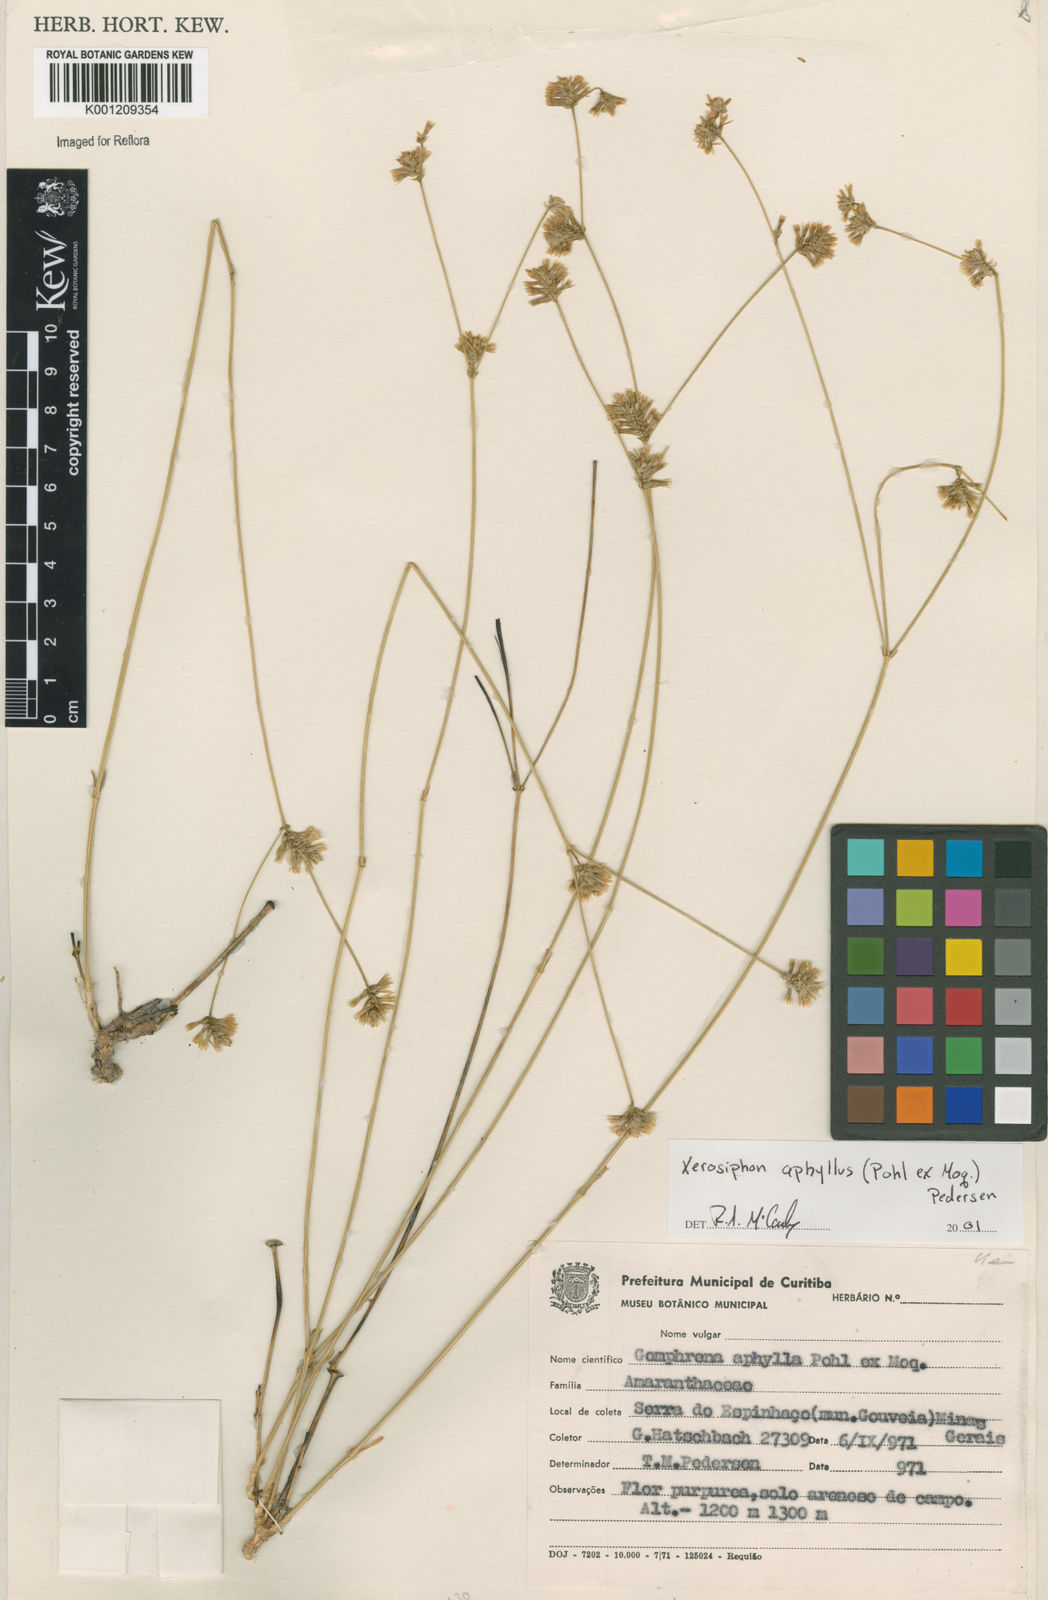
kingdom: Plantae
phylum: Tracheophyta
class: Magnoliopsida
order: Caryophyllales
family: Amaranthaceae
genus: Gomphrena
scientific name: Gomphrena aphylla
